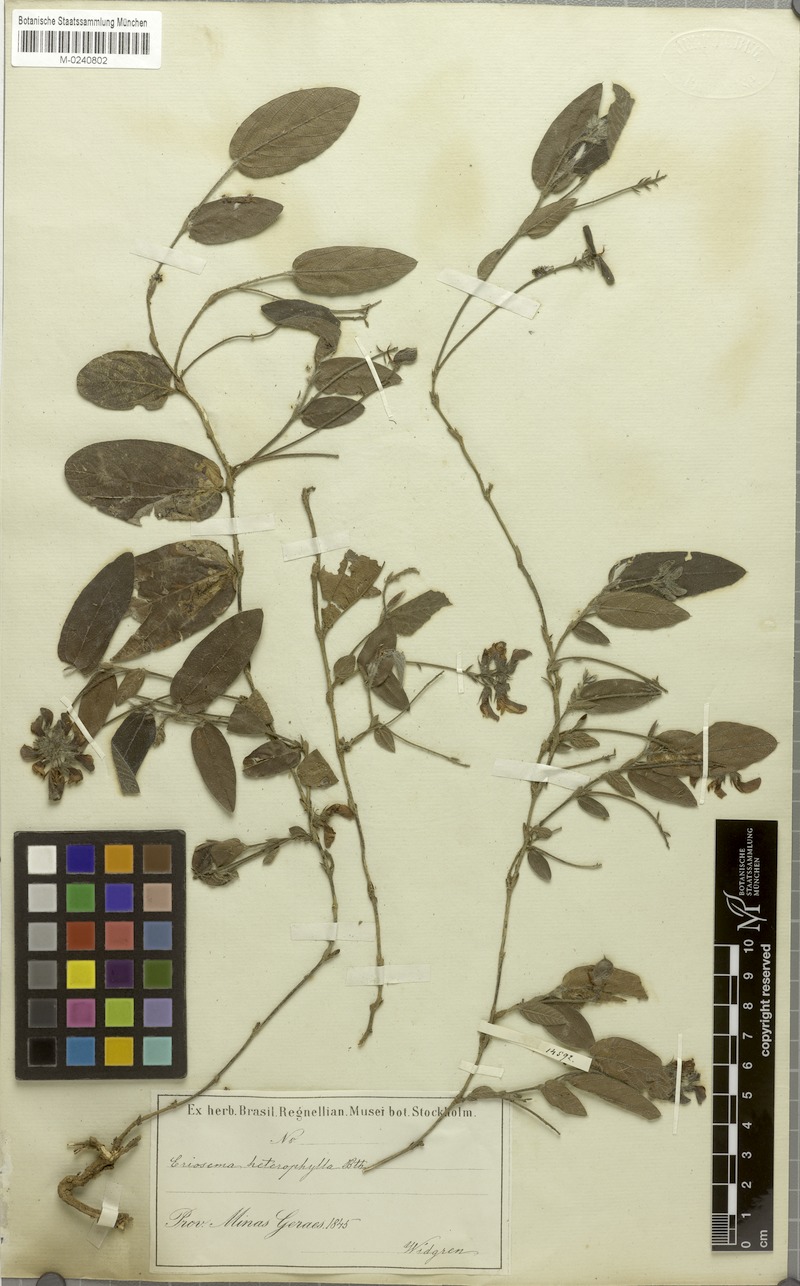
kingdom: Plantae
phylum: Tracheophyta
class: Magnoliopsida
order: Fabales
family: Fabaceae
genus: Eriosema
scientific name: Eriosema heterophyllum
